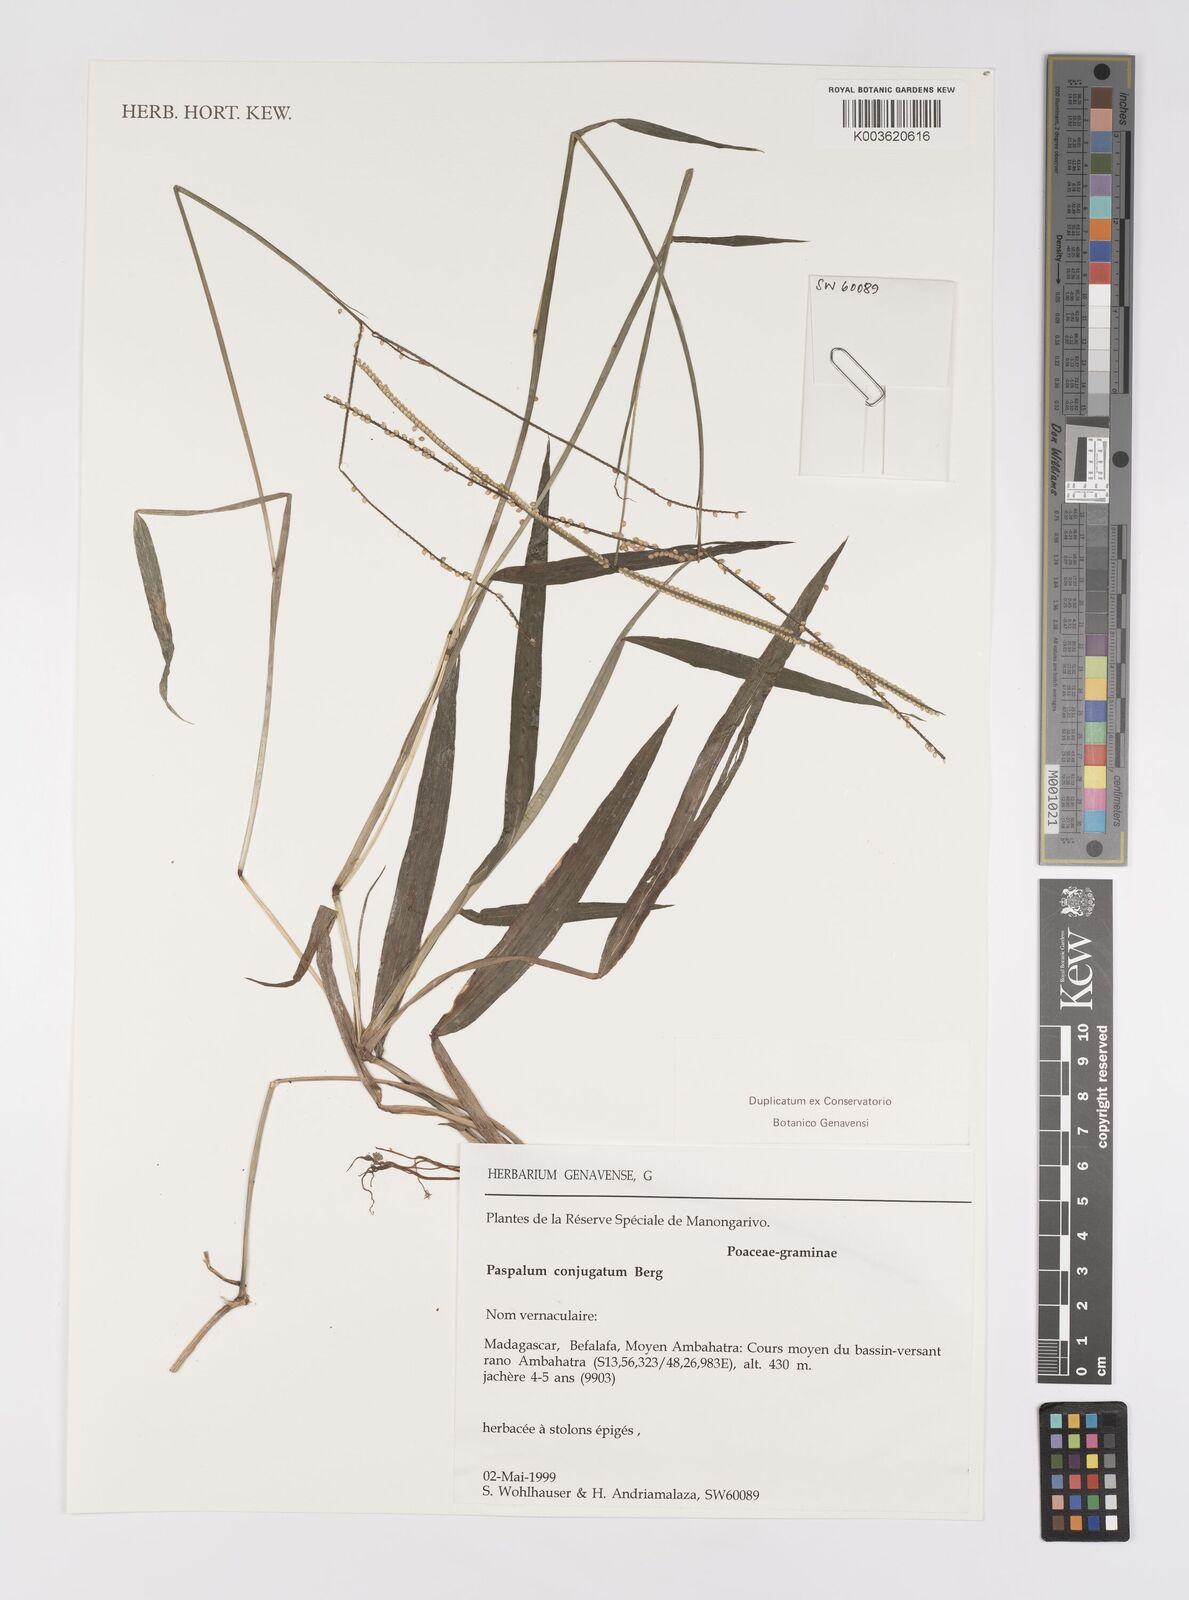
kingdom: Plantae
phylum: Tracheophyta
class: Liliopsida
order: Poales
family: Poaceae
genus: Paspalum
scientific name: Paspalum conjugatum
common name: Hilograss
